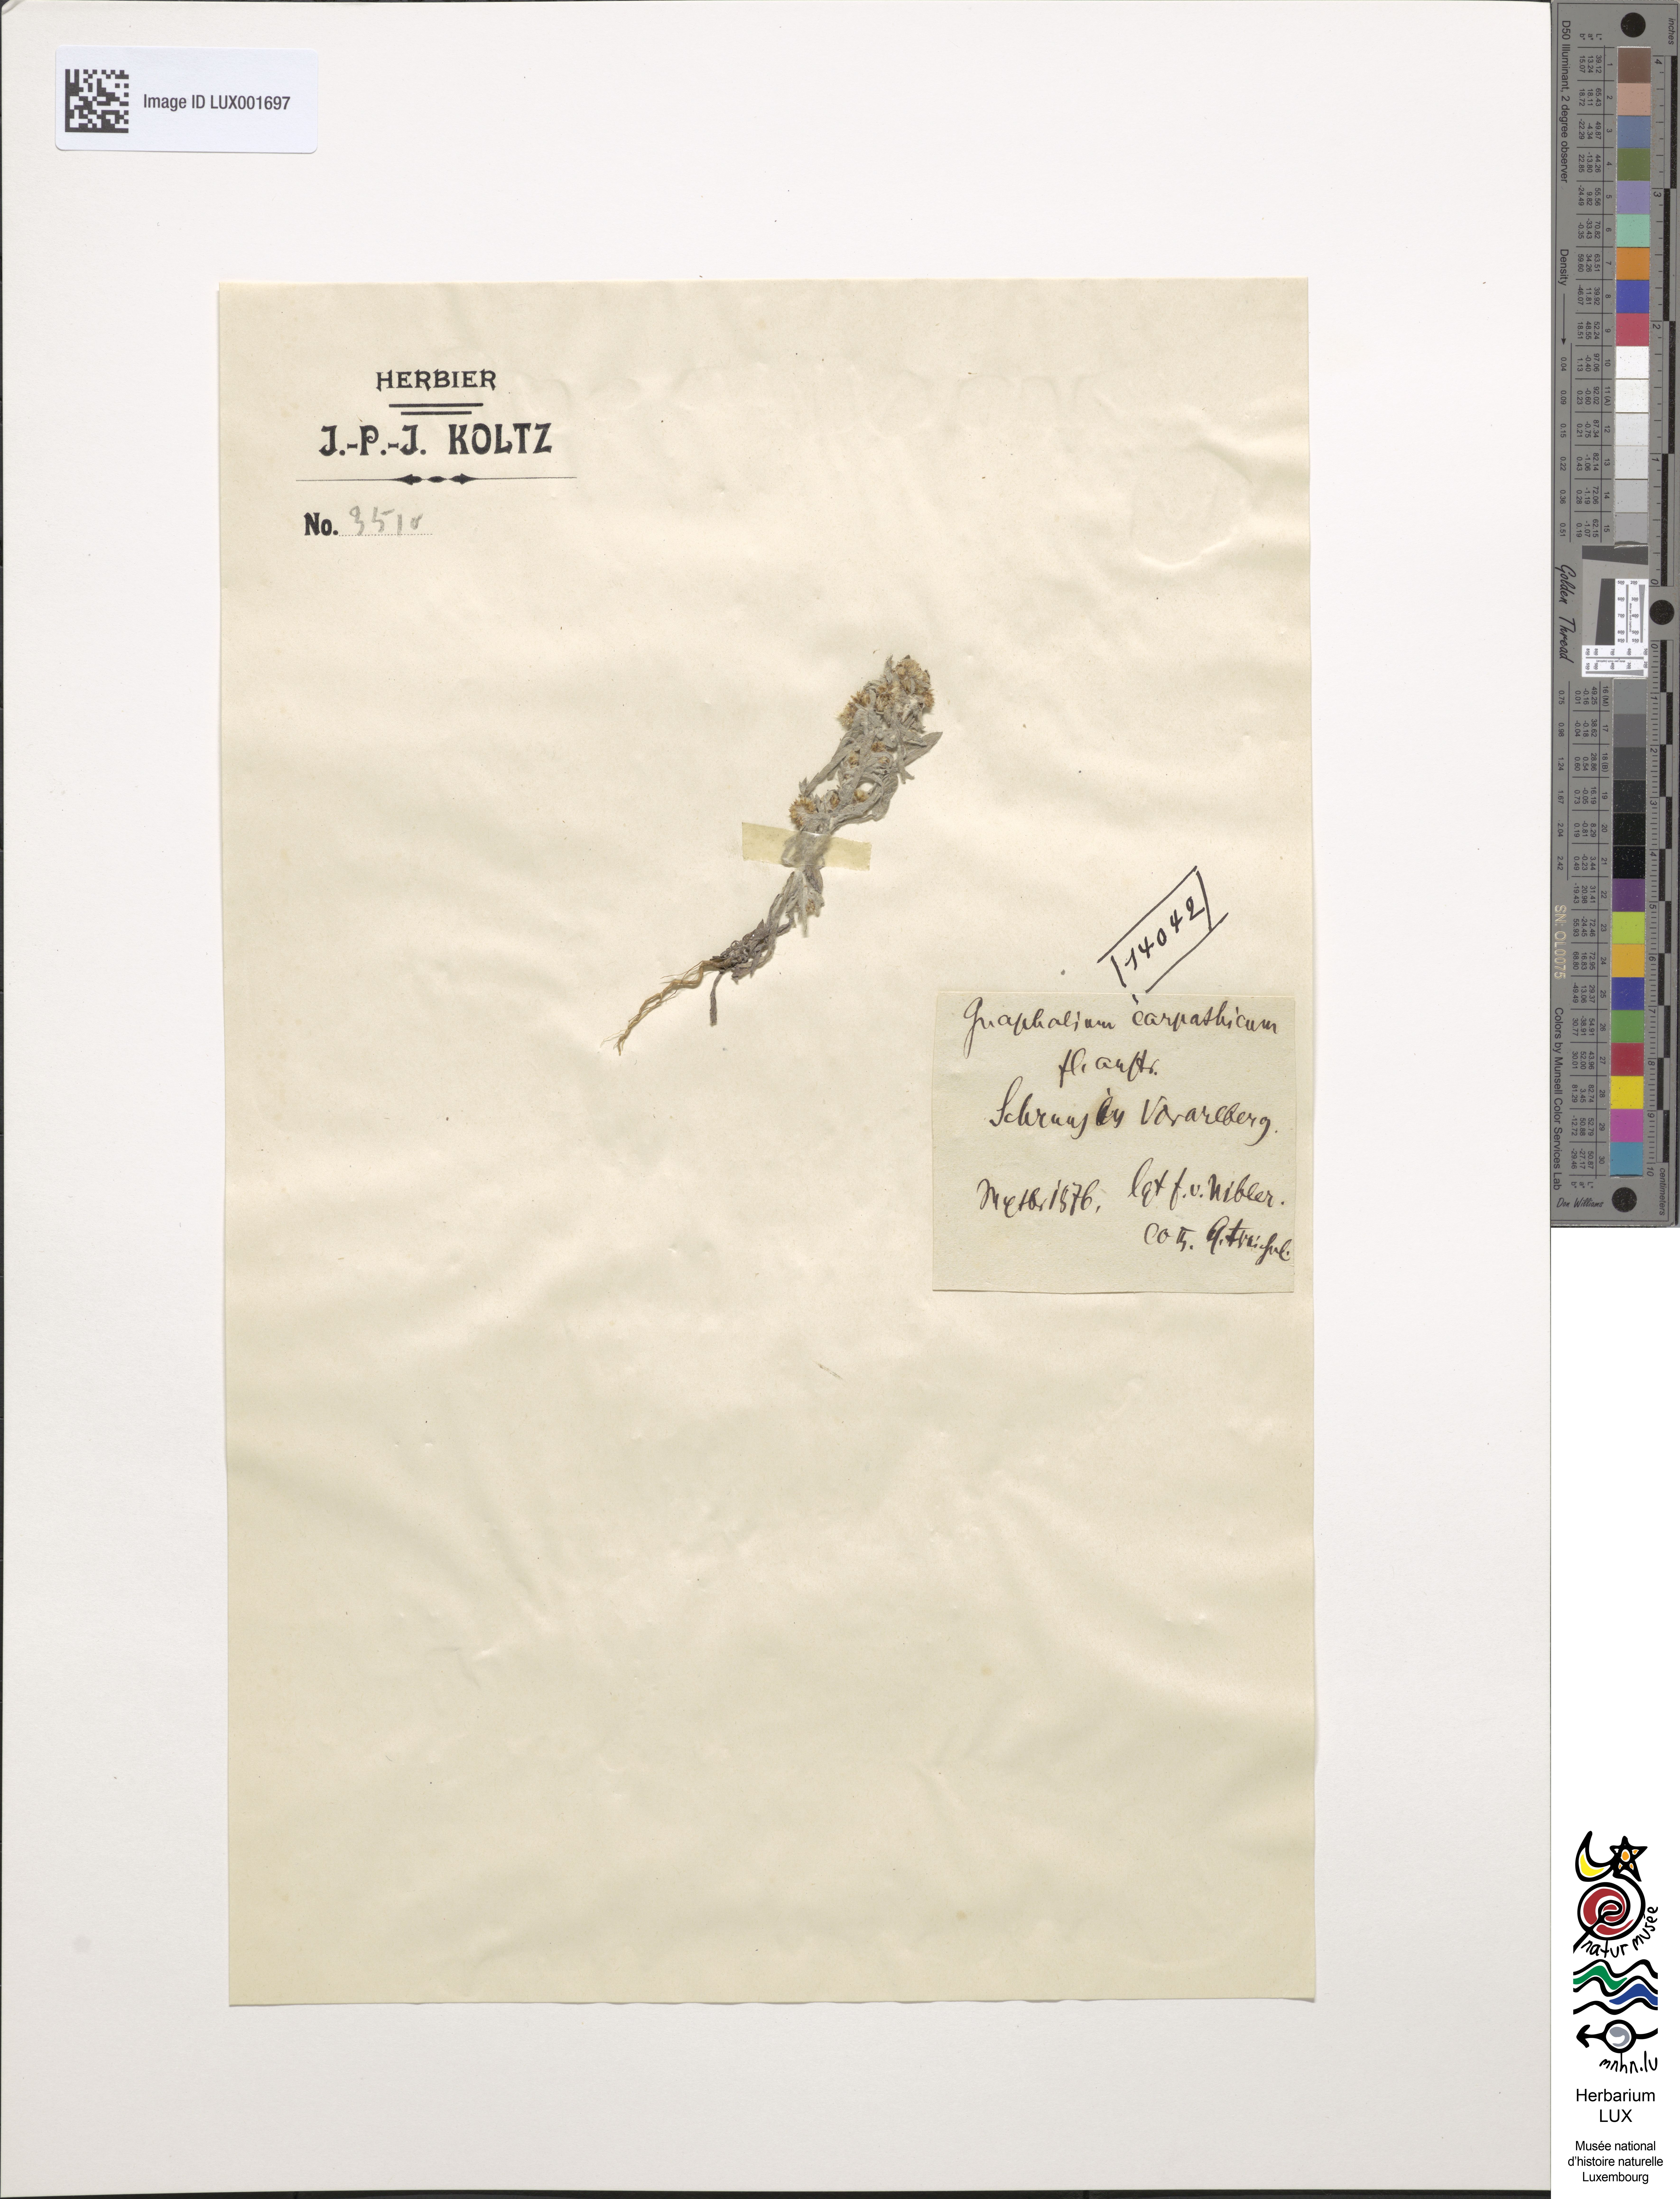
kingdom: Plantae
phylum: Tracheophyta
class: Magnoliopsida
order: Asterales
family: Asteraceae
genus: Antennaria
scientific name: Antennaria carpatica
